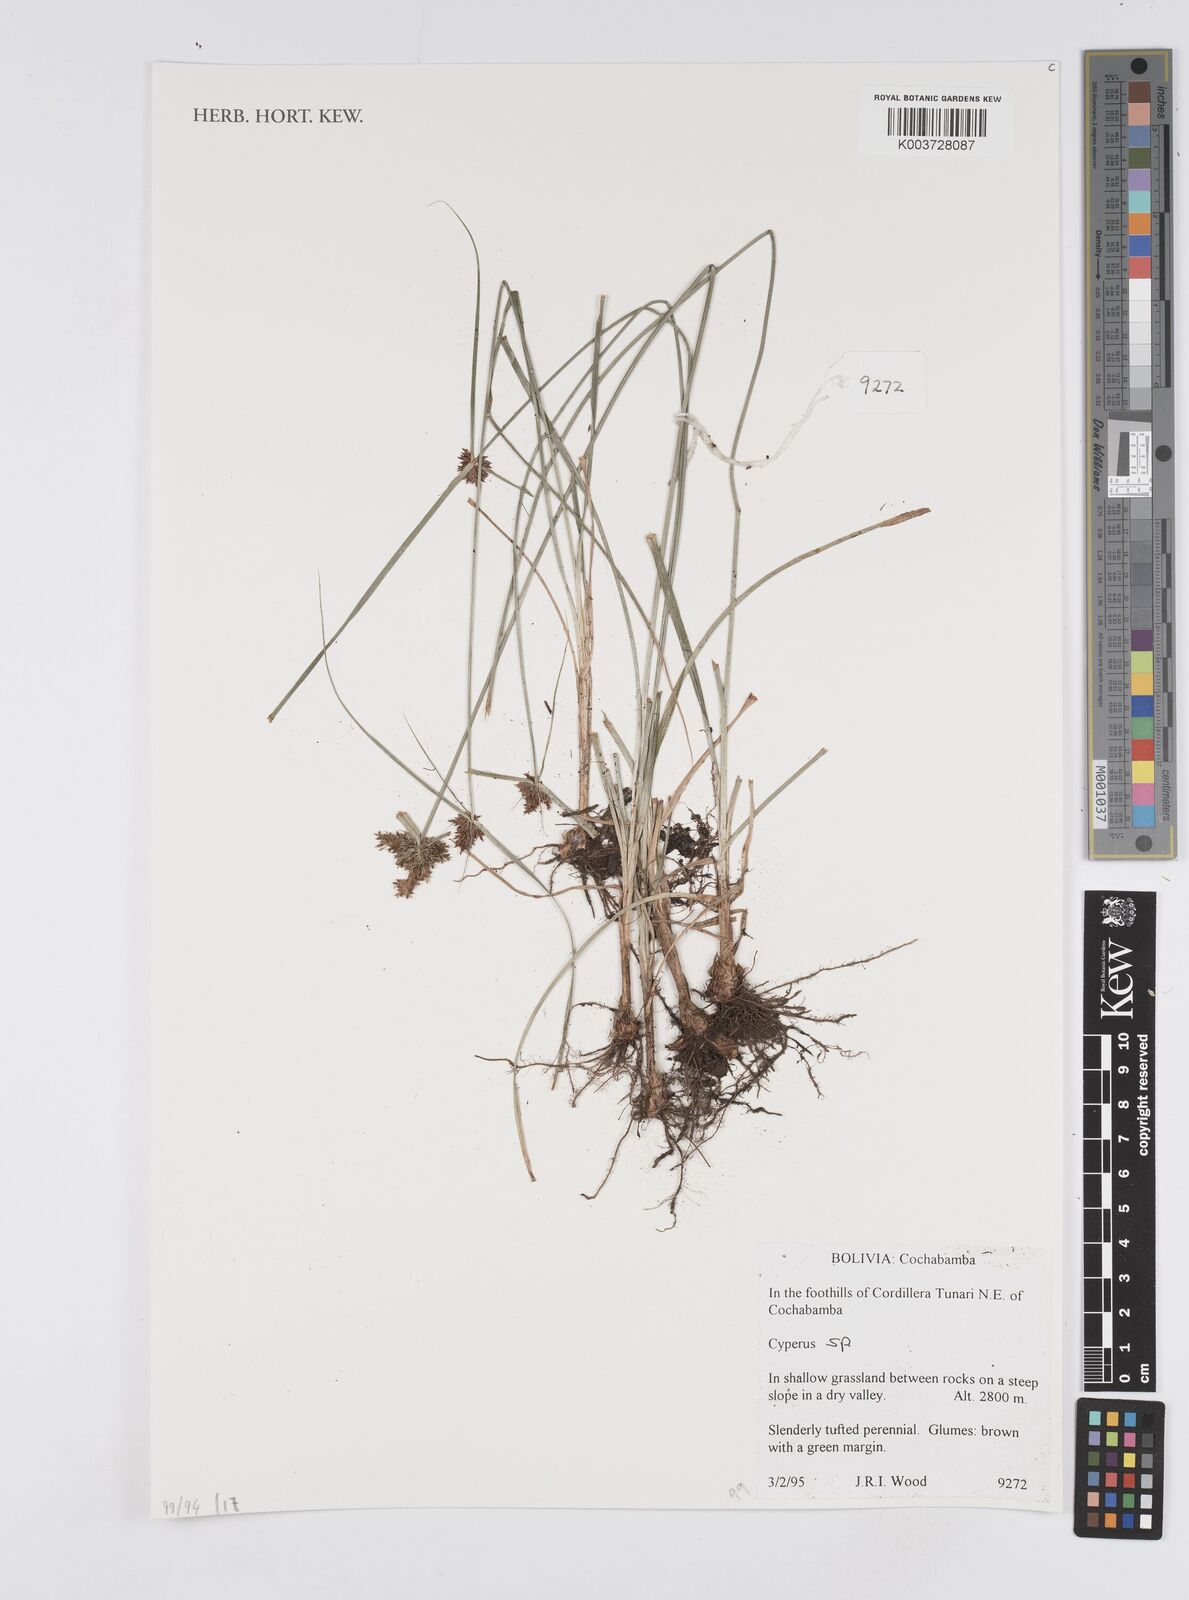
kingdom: Plantae
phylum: Tracheophyta
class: Liliopsida
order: Poales
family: Cyperaceae
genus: Cyperus
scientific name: Cyperus
